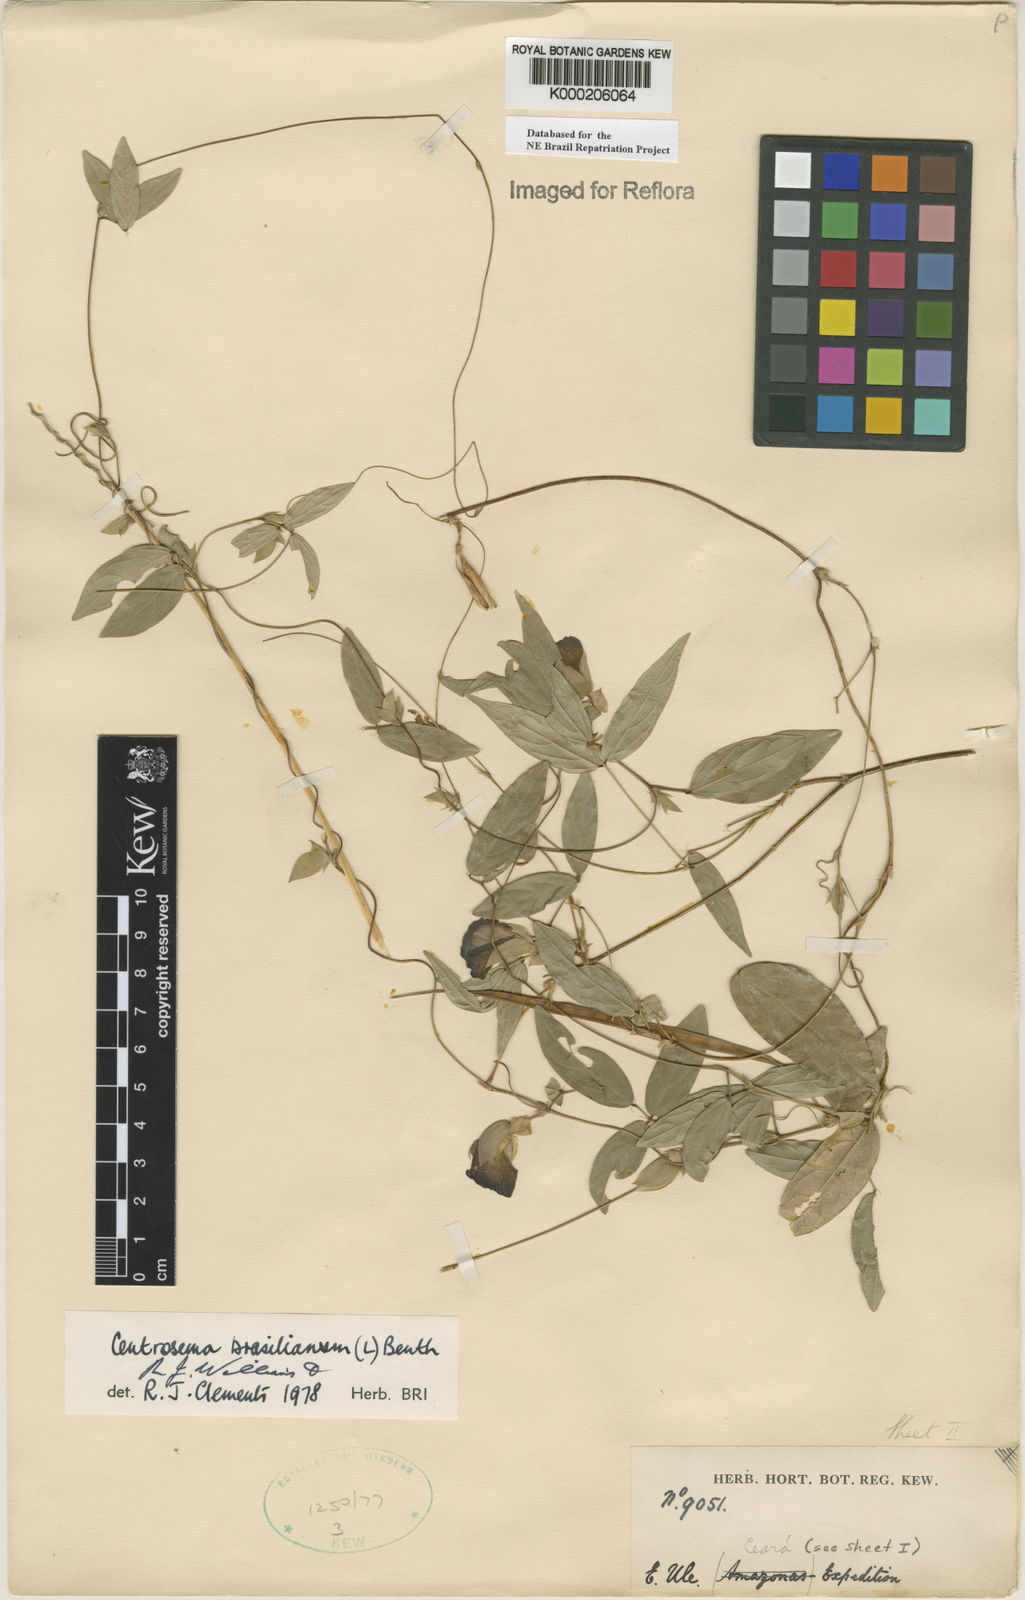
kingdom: Plantae
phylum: Tracheophyta
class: Magnoliopsida
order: Fabales
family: Fabaceae
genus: Centrosema
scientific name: Centrosema brasilianum
